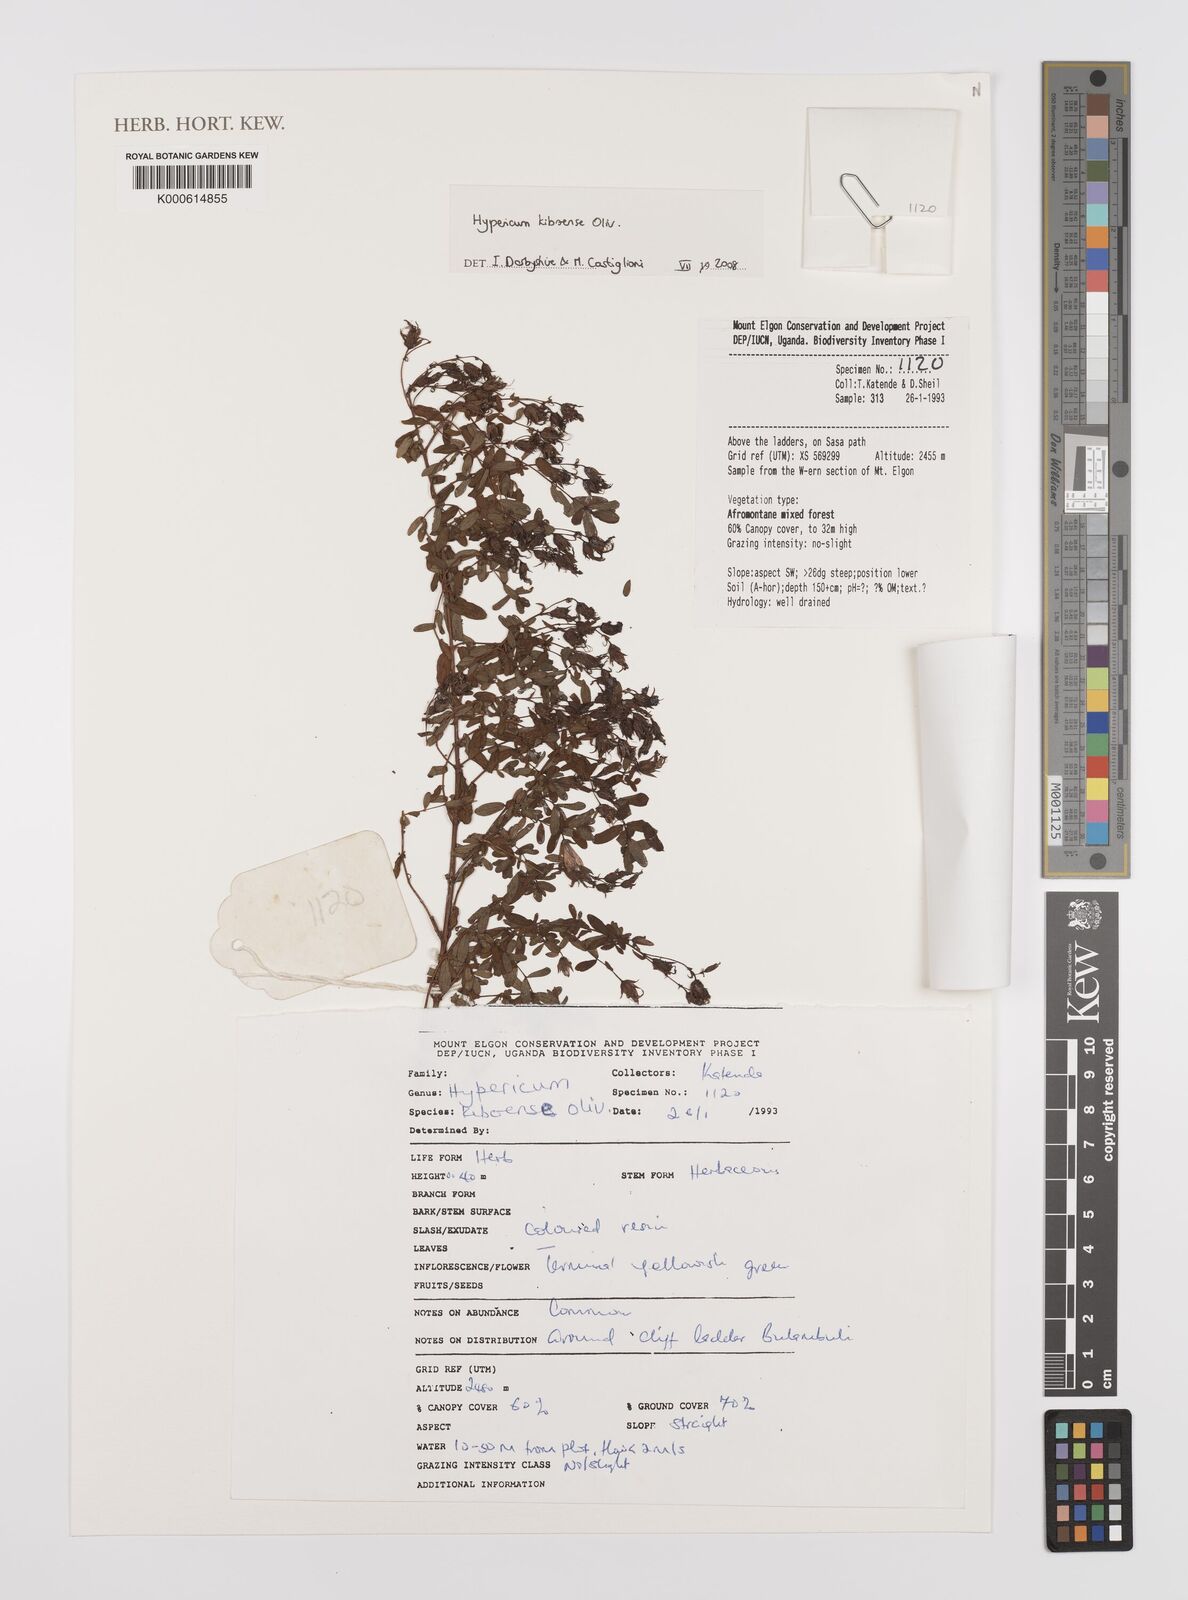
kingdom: Plantae
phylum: Tracheophyta
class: Magnoliopsida
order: Malpighiales
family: Hypericaceae
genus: Hypericum
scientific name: Hypericum kiboense
